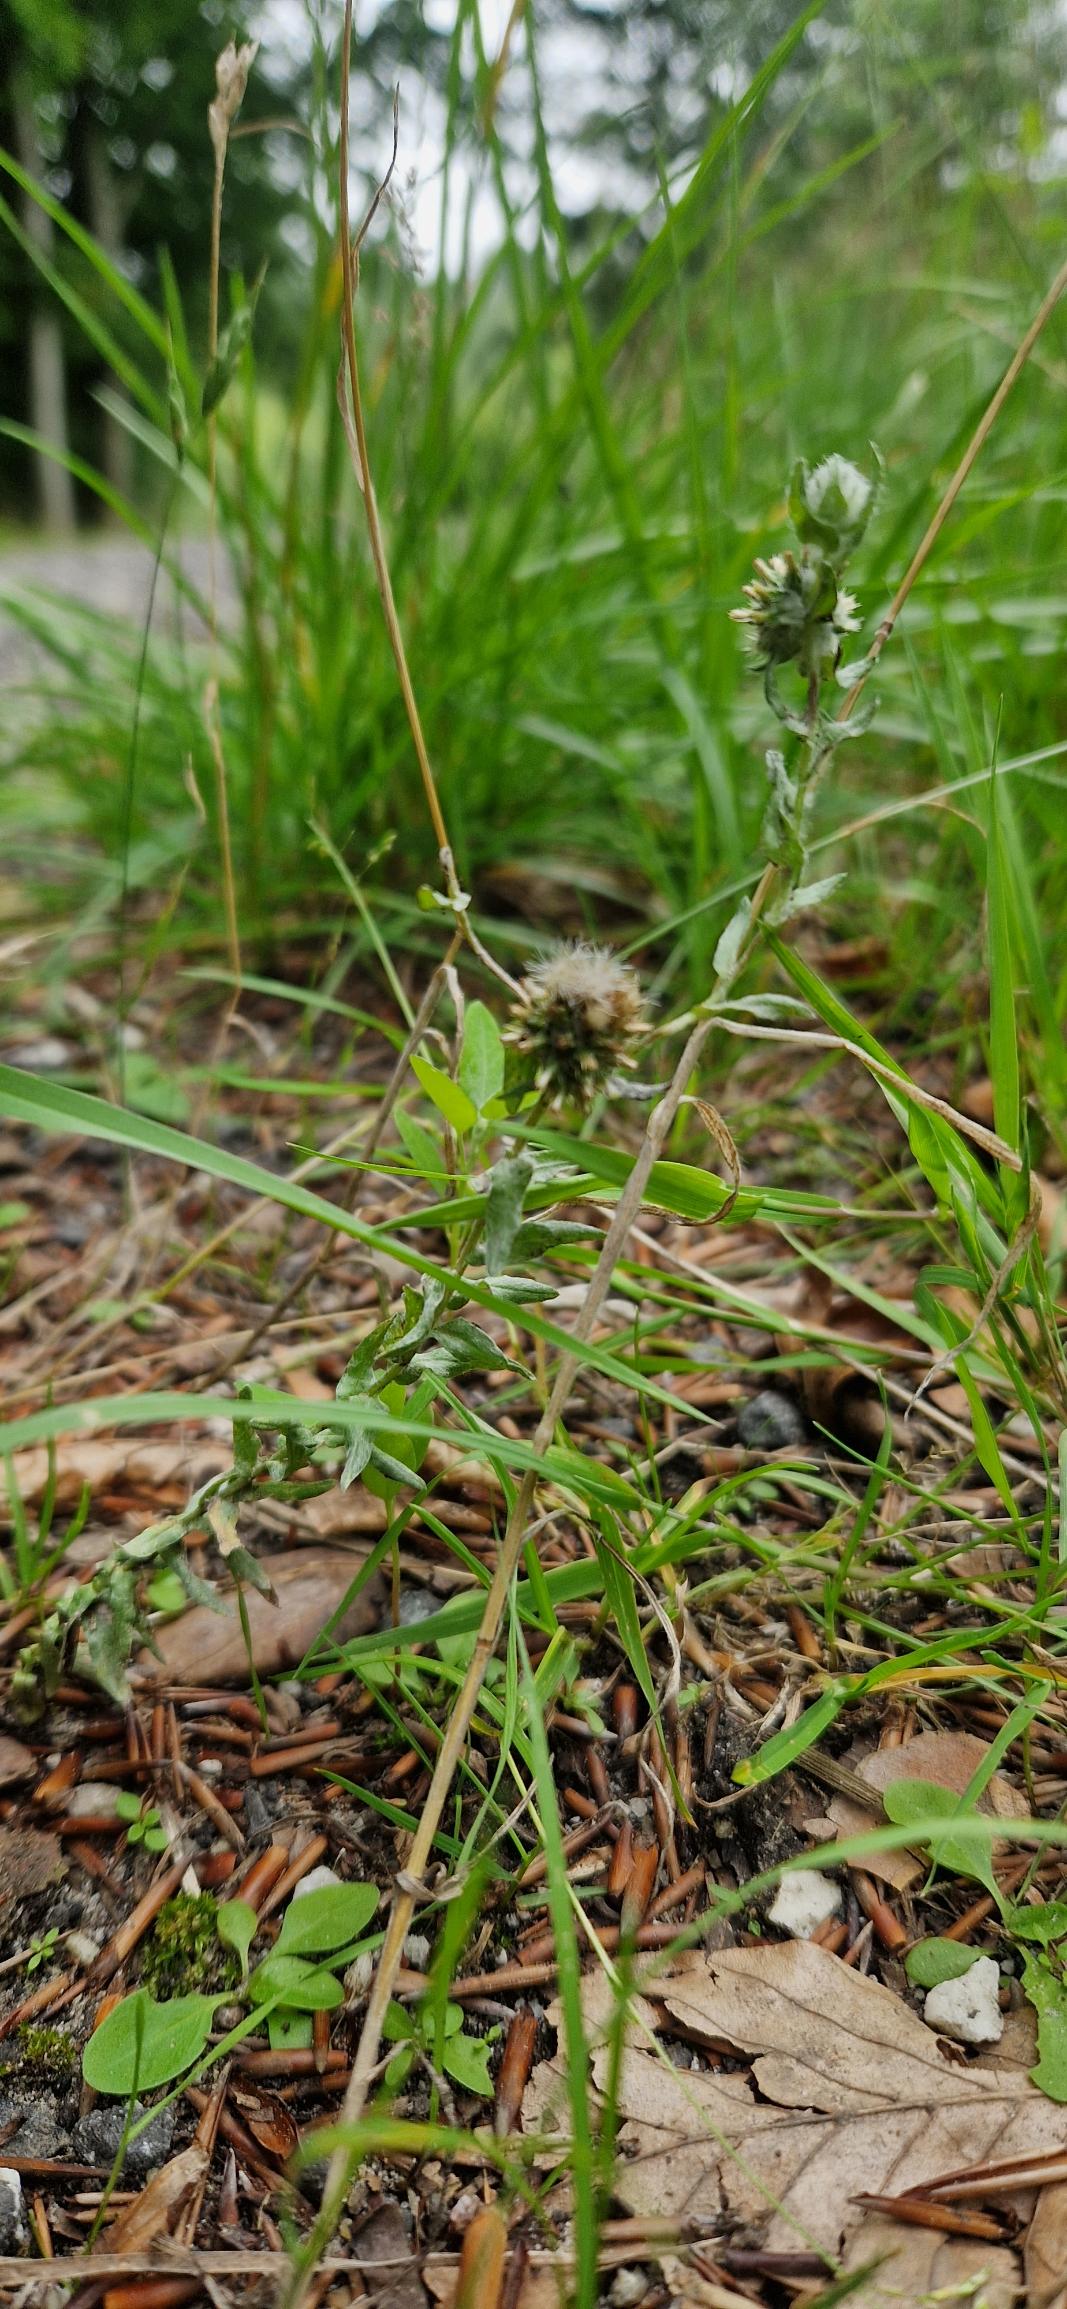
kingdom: Plantae
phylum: Tracheophyta
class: Magnoliopsida
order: Asterales
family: Asteraceae
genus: Filago
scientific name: Filago germanica
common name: Kugle-museurt
